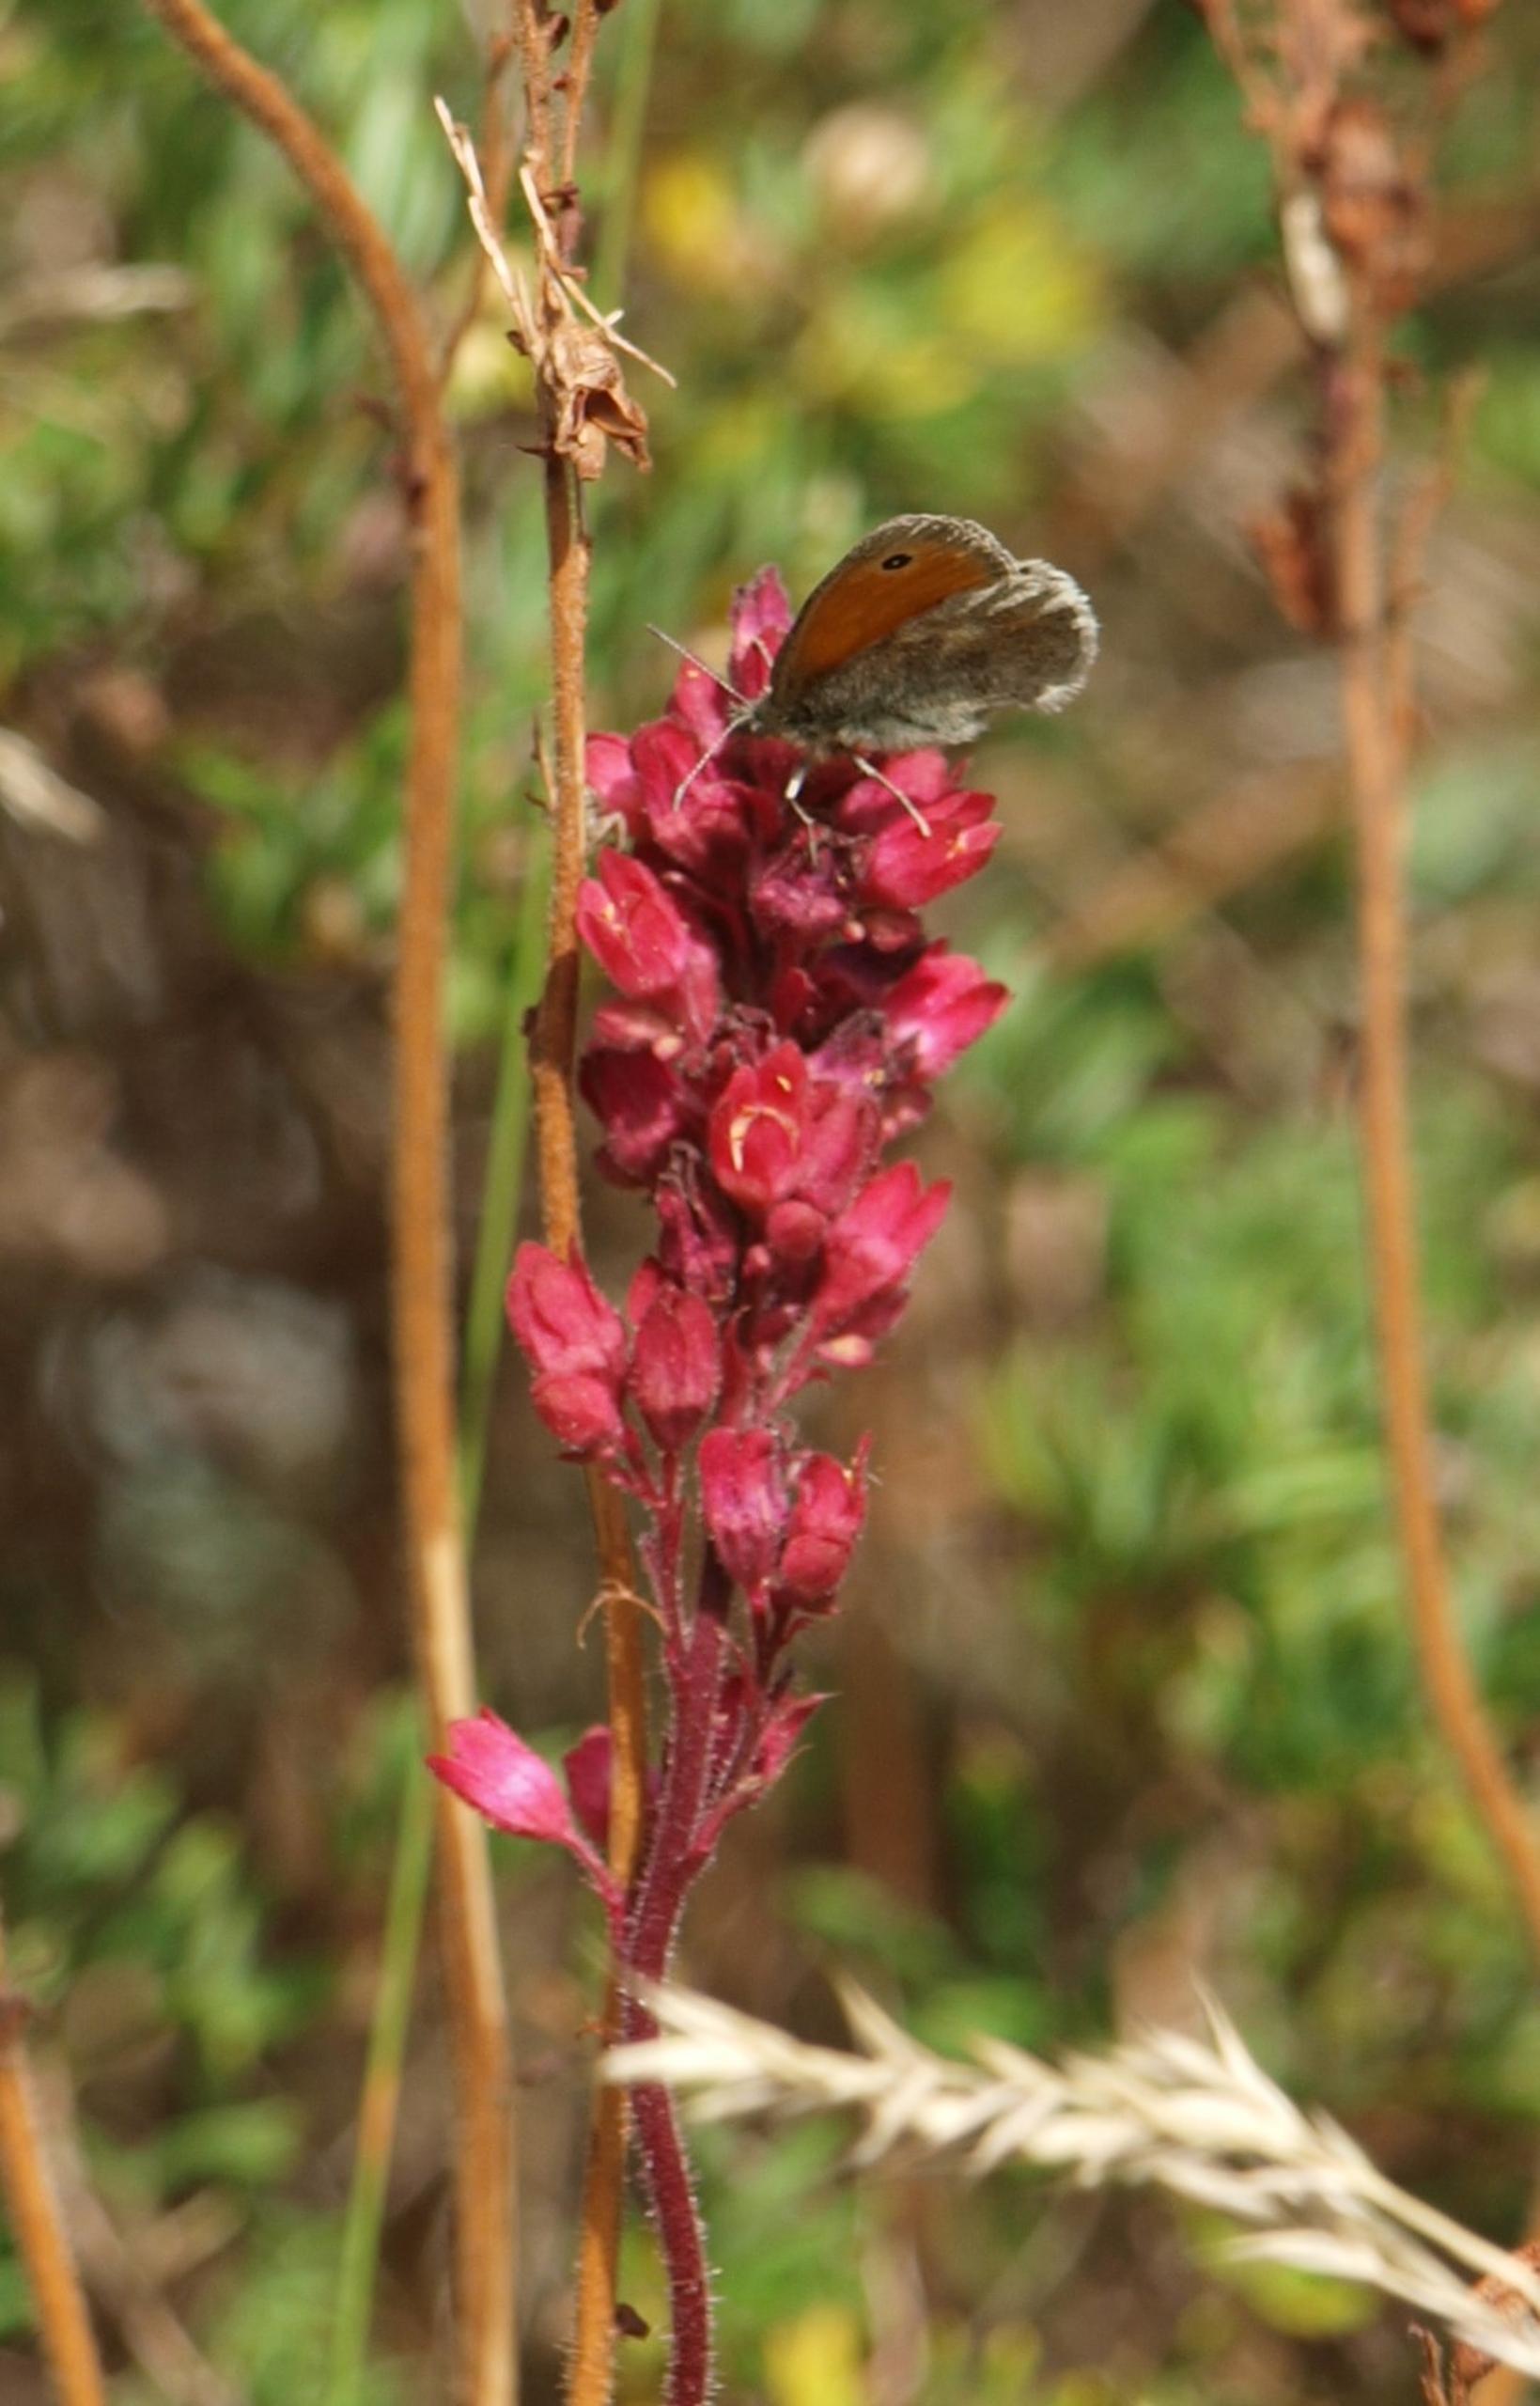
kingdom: Animalia
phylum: Arthropoda
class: Insecta
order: Lepidoptera
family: Nymphalidae
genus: Coenonympha
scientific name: Coenonympha pamphilus
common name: Okkergul randøje
